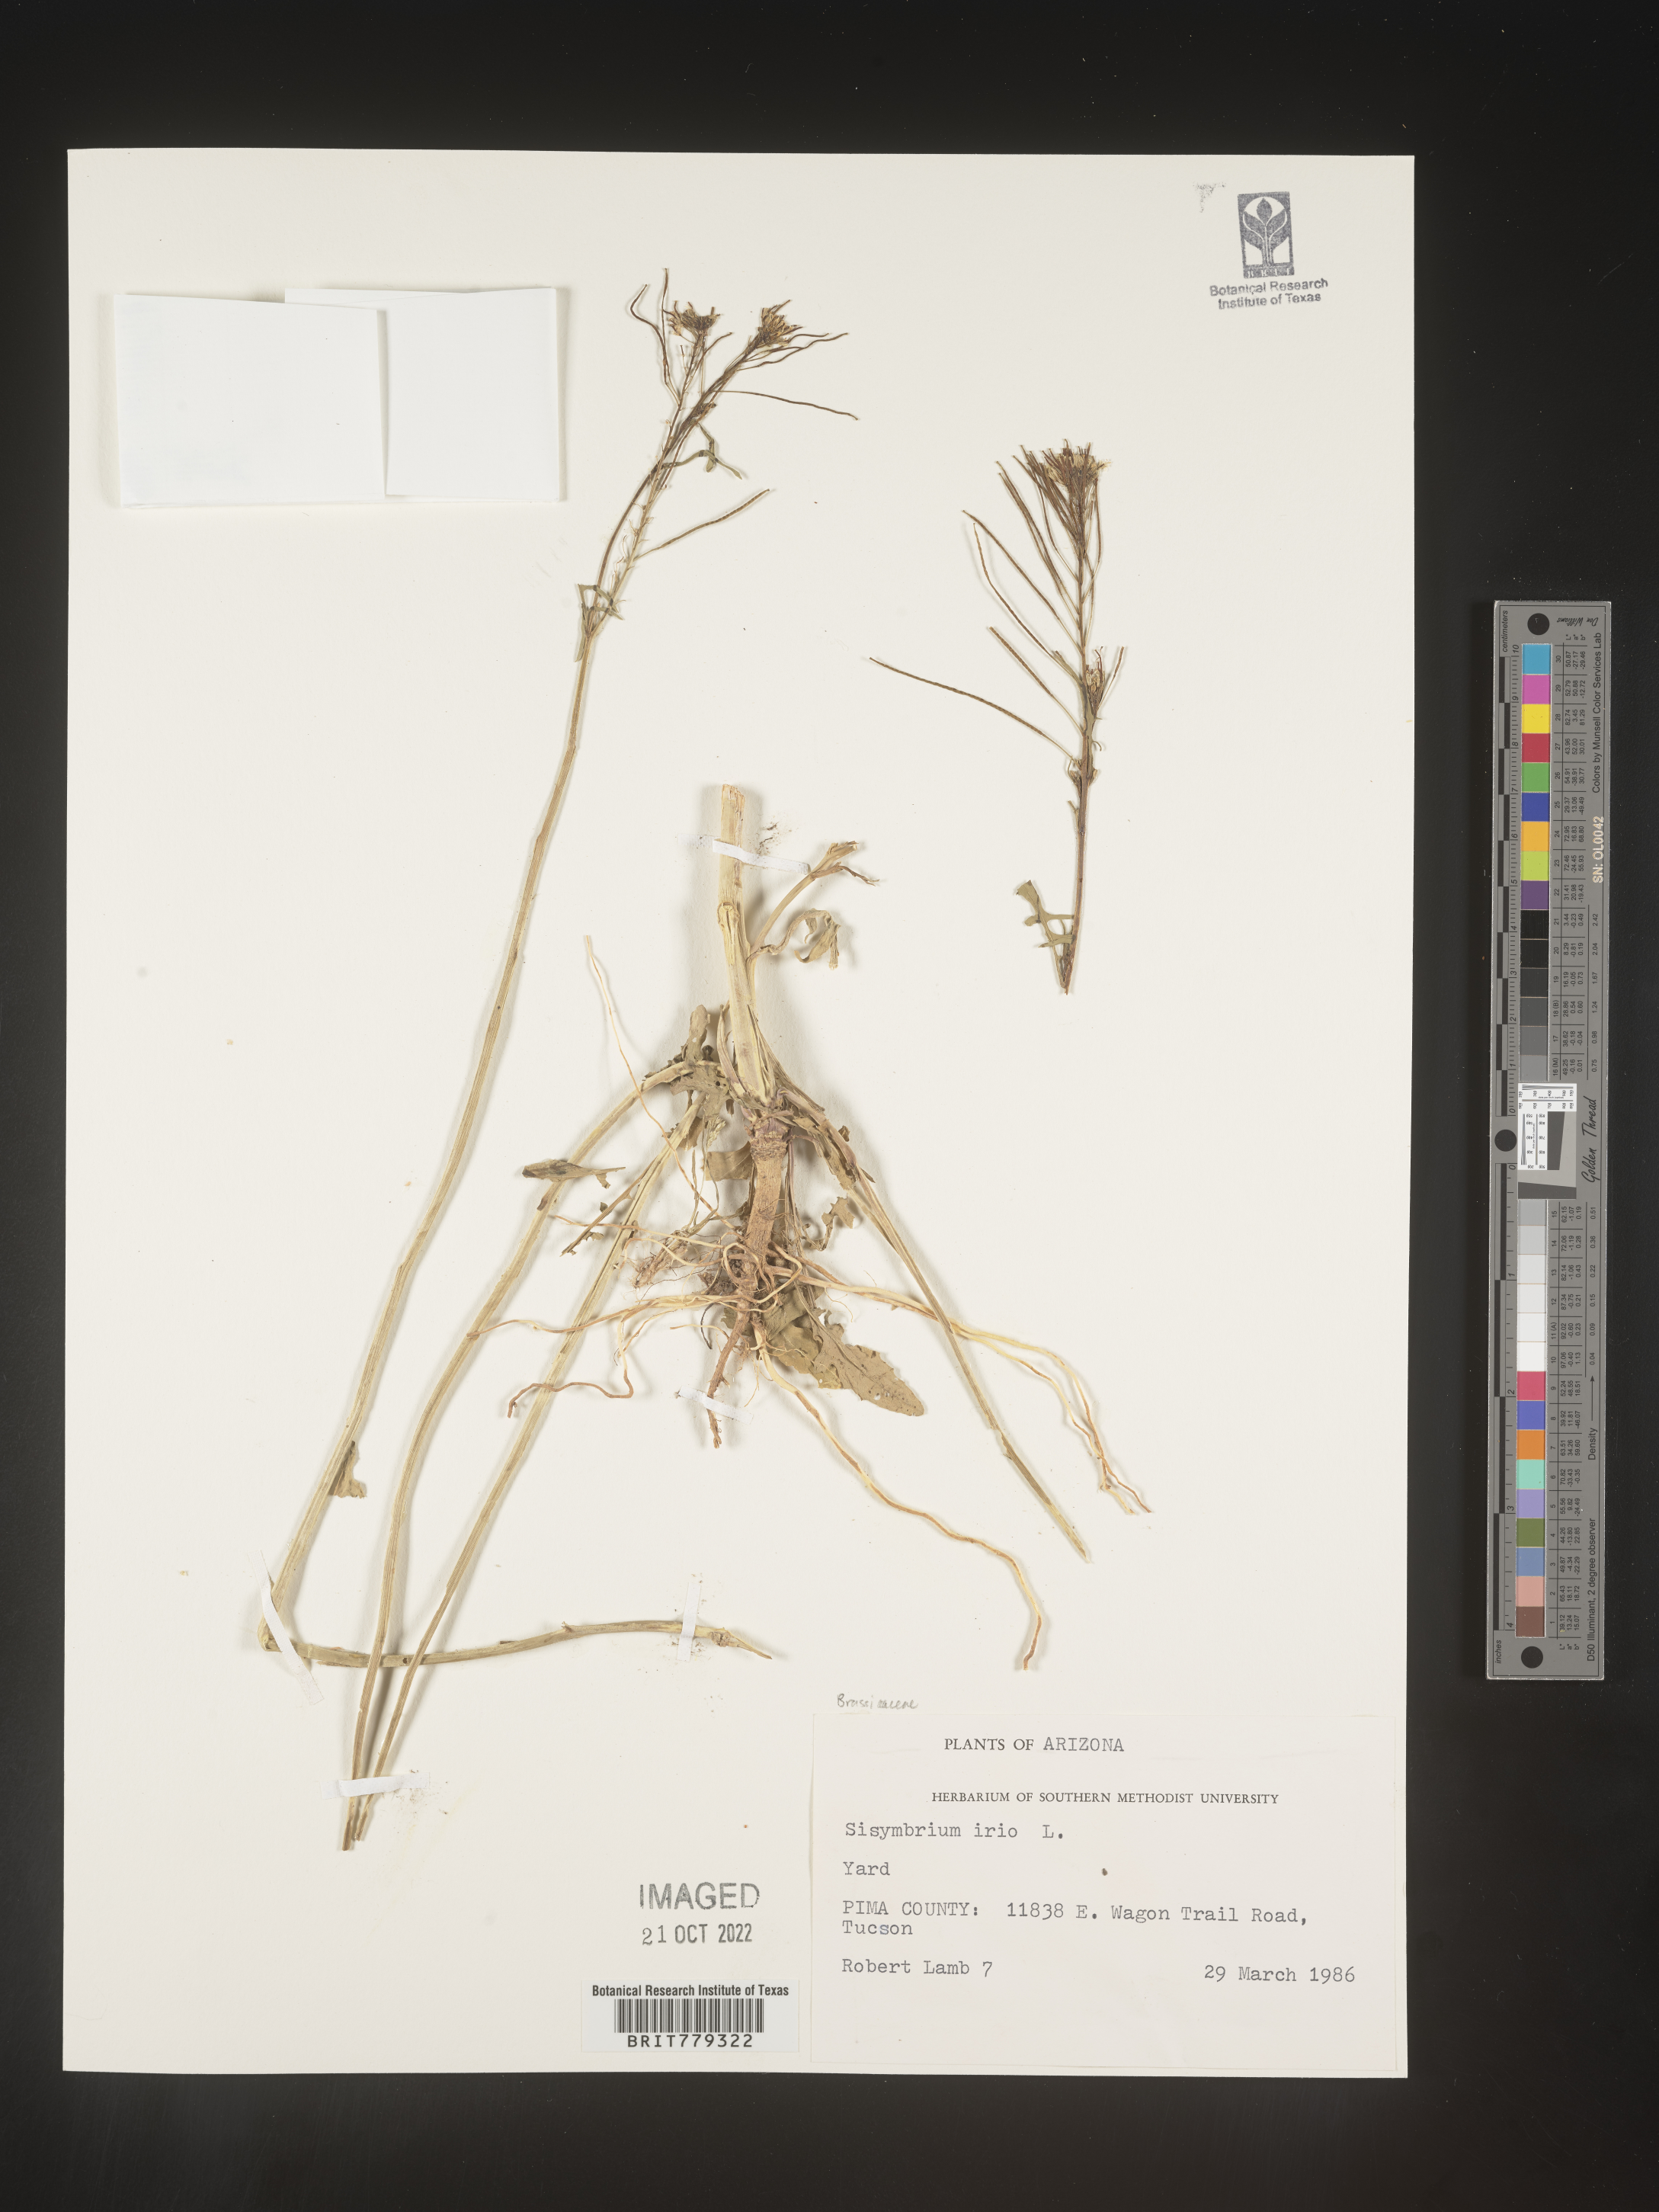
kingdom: Plantae
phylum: Tracheophyta
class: Magnoliopsida
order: Brassicales
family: Brassicaceae
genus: Sisymbrium
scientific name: Sisymbrium
